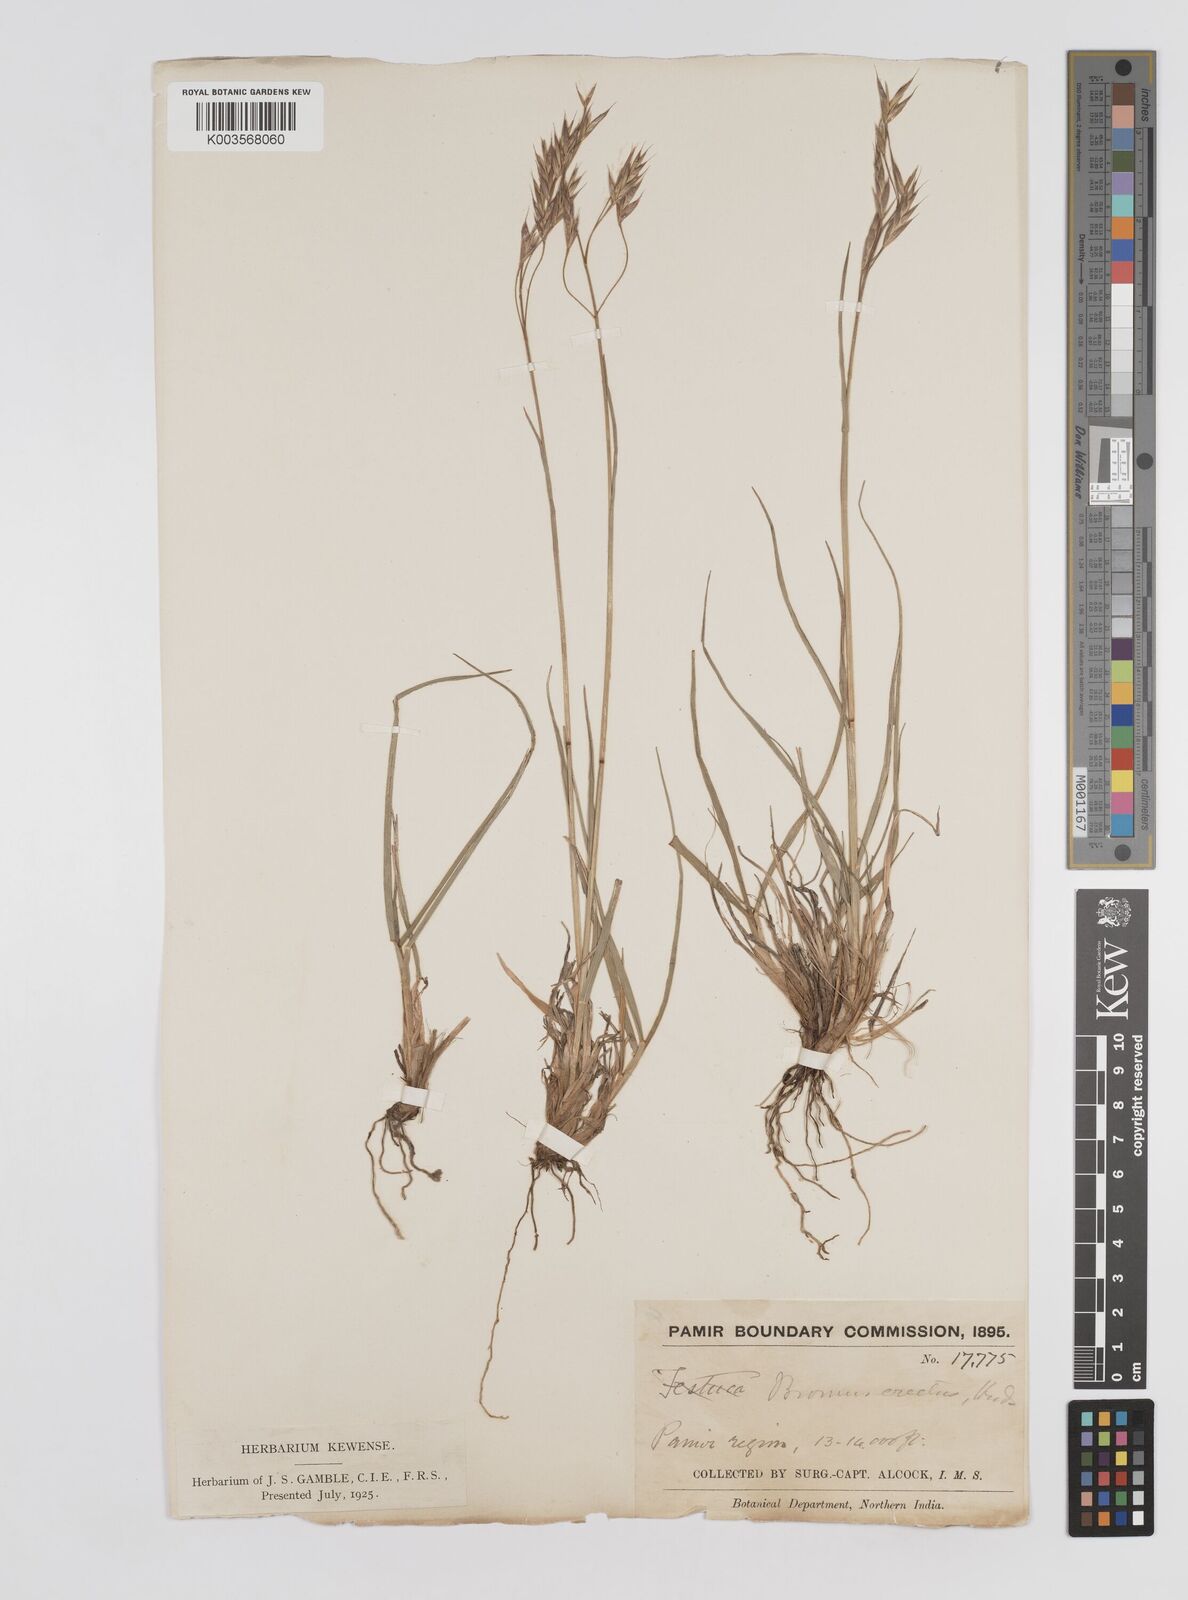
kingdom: Plantae
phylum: Tracheophyta
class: Liliopsida
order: Poales
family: Poaceae
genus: Bromus
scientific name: Bromus erectus
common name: Erect brome
